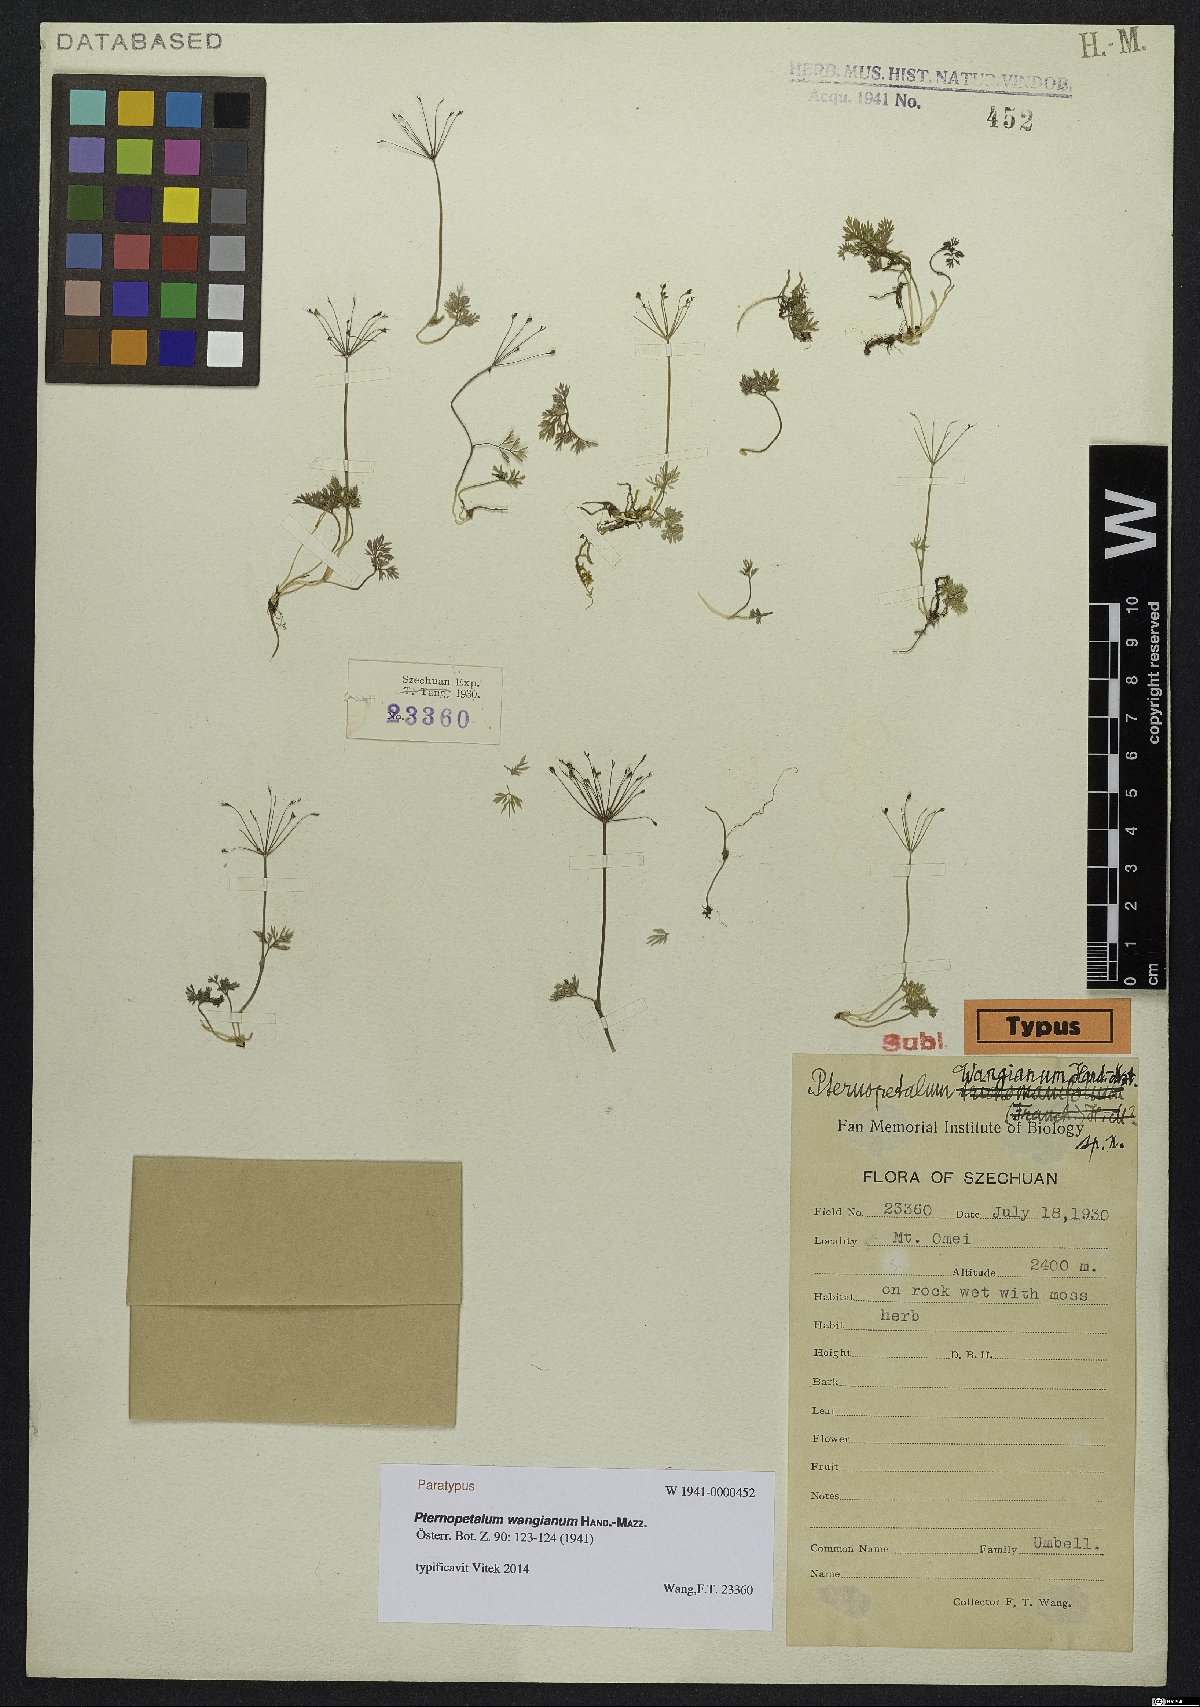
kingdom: Plantae
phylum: Tracheophyta
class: Magnoliopsida
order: Apiales
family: Apiaceae
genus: Pternopetalum
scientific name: Pternopetalum gracilimum
